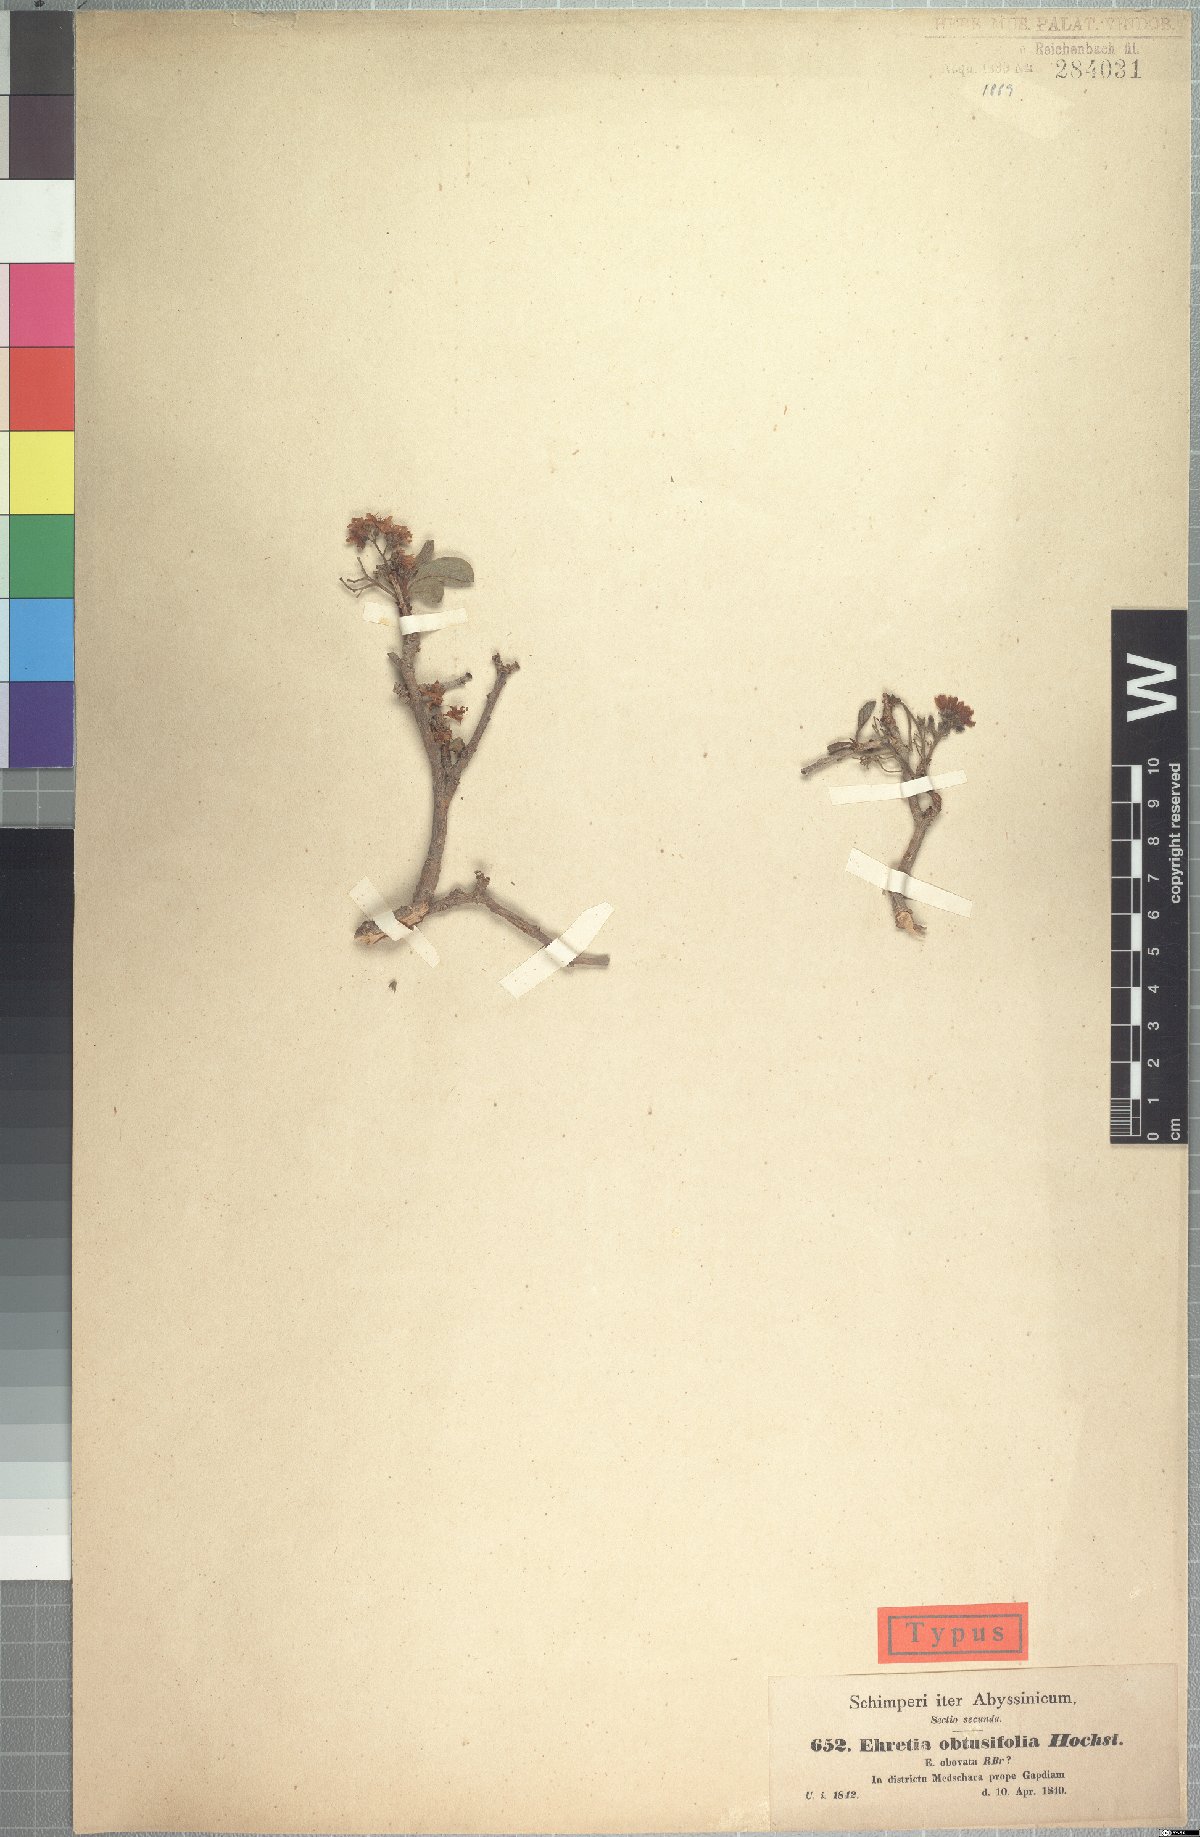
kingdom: Plantae
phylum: Tracheophyta
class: Magnoliopsida
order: Boraginales
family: Ehretiaceae
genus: Ehretia
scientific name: Ehretia obtusifolia
